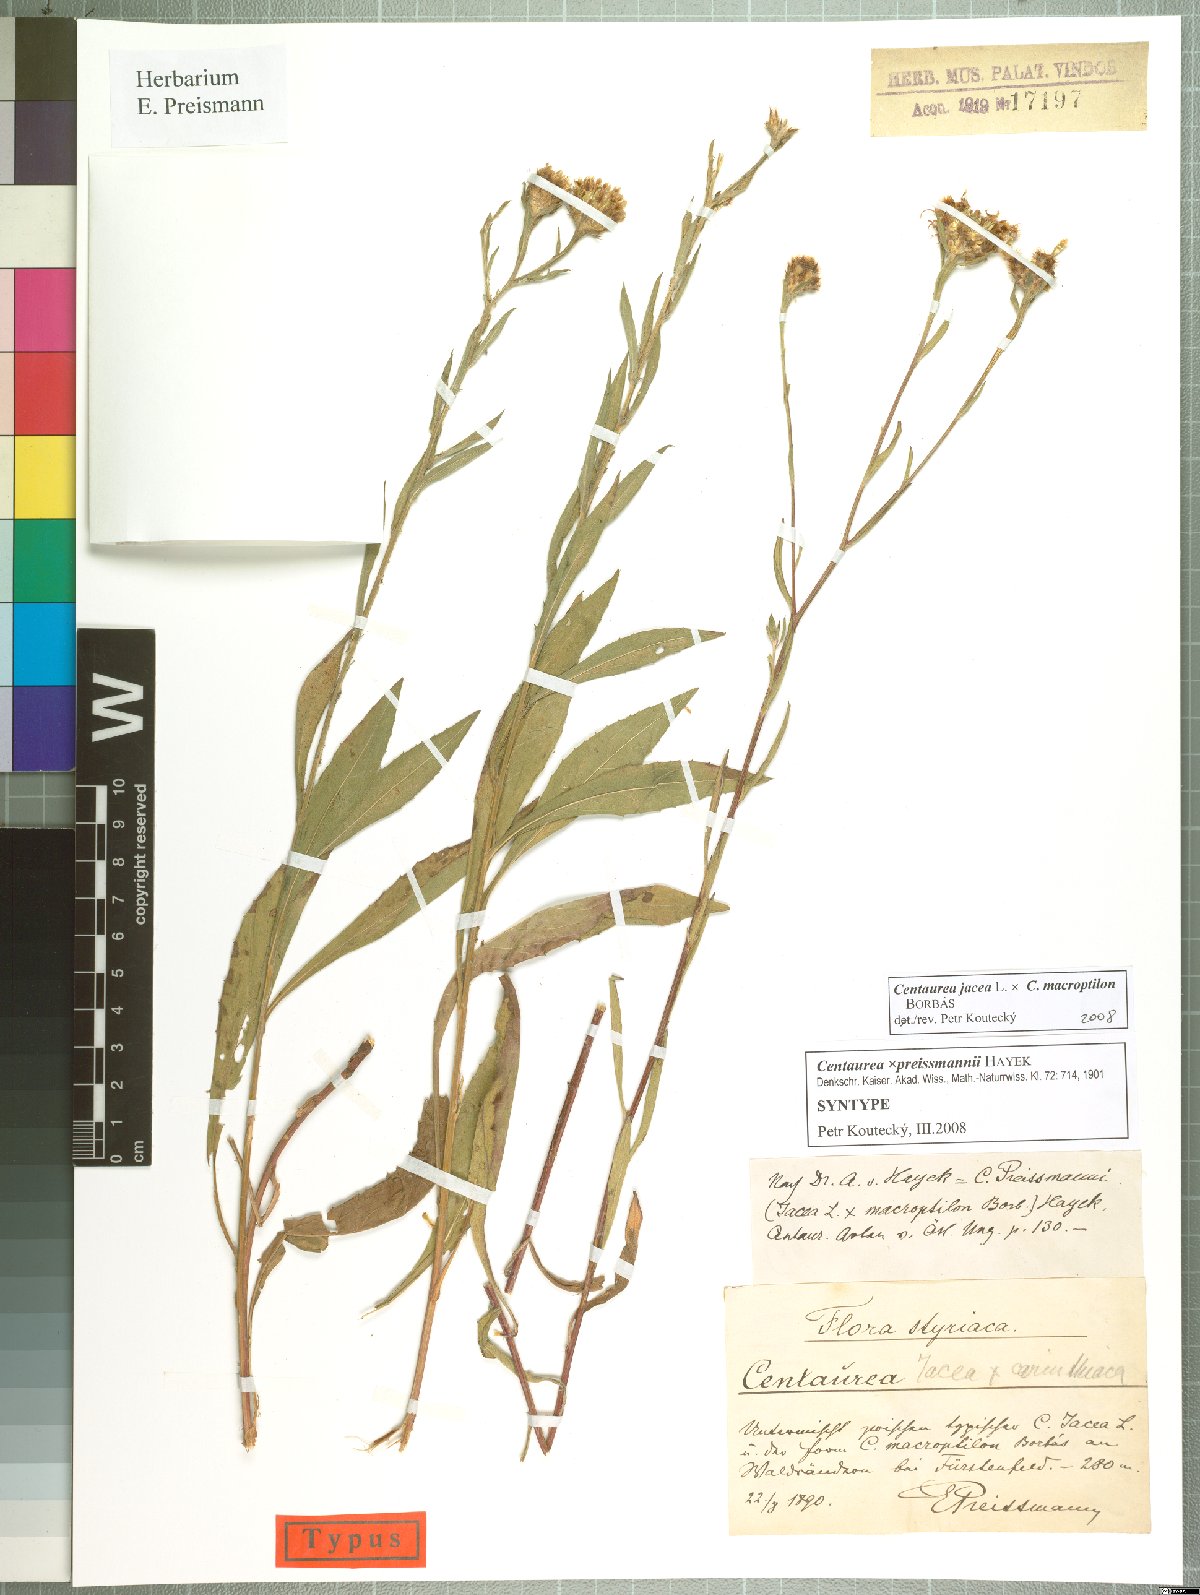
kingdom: Plantae
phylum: Tracheophyta
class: Magnoliopsida
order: Asterales
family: Asteraceae
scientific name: Asteraceae
